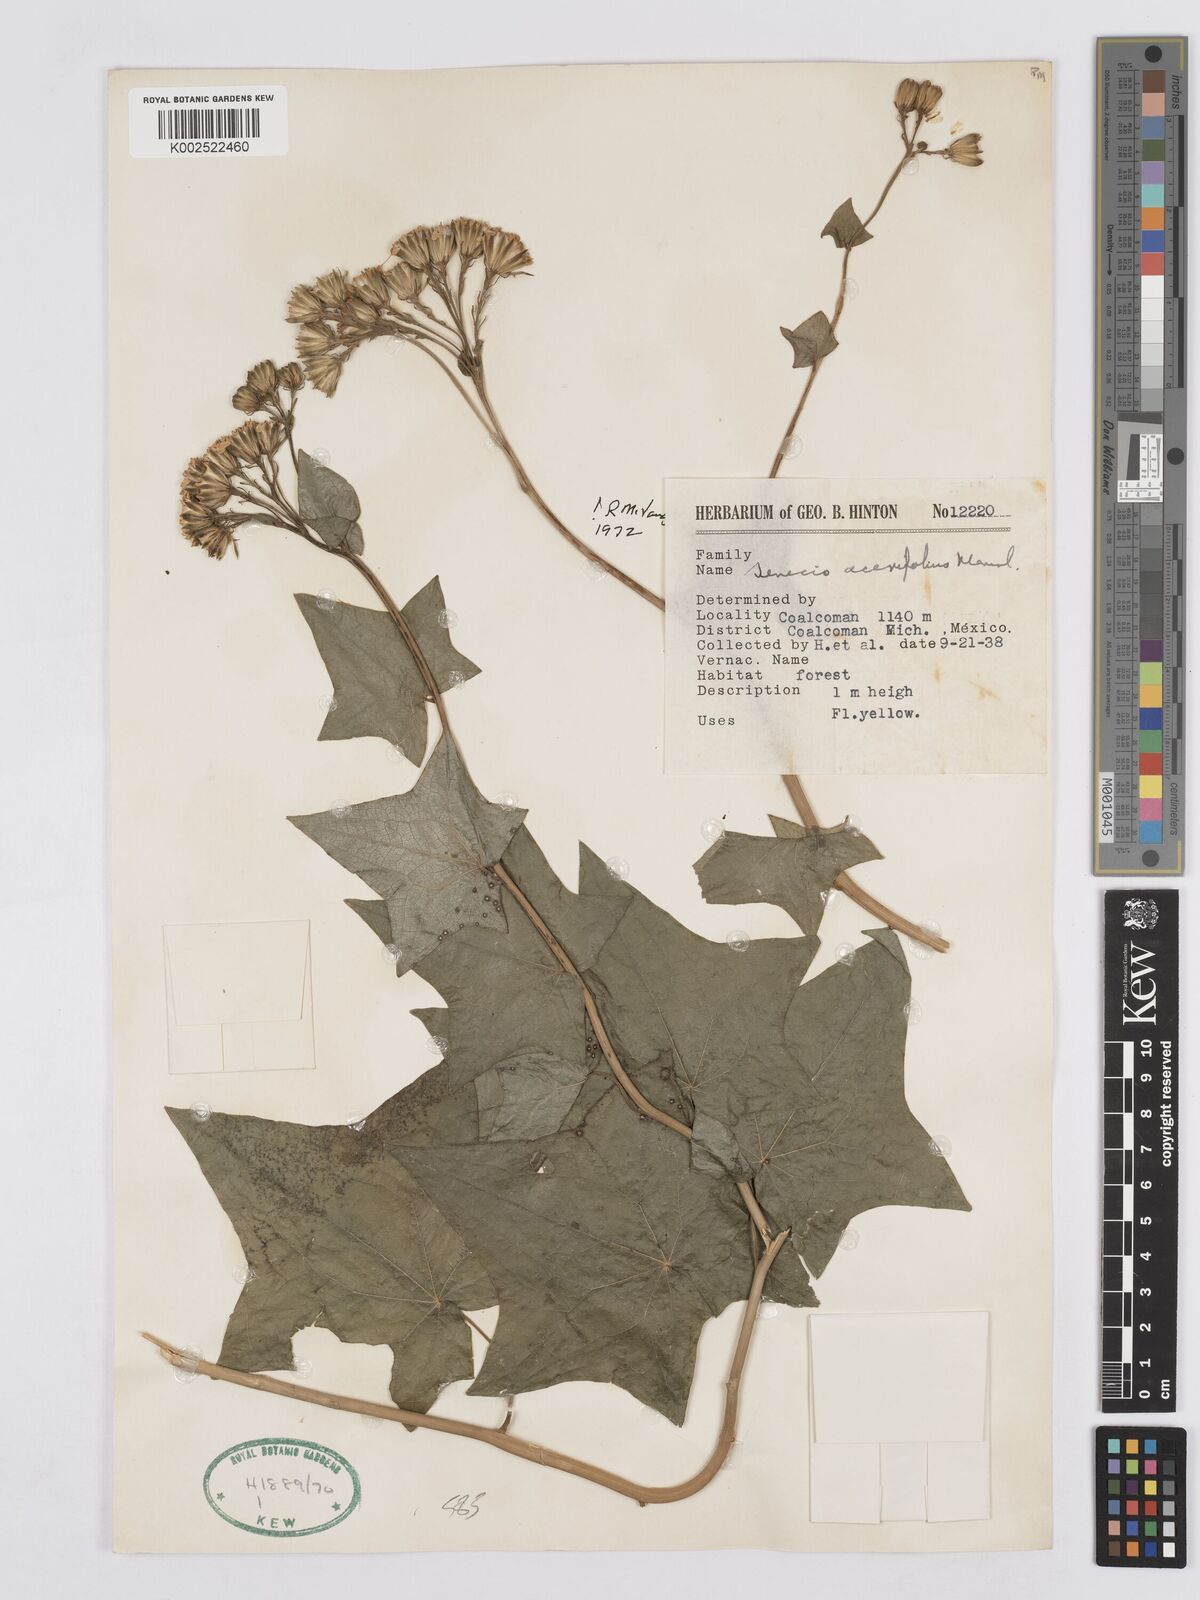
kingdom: Plantae
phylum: Tracheophyta
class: Magnoliopsida
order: Asterales
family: Asteraceae
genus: Roldana
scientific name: Roldana
